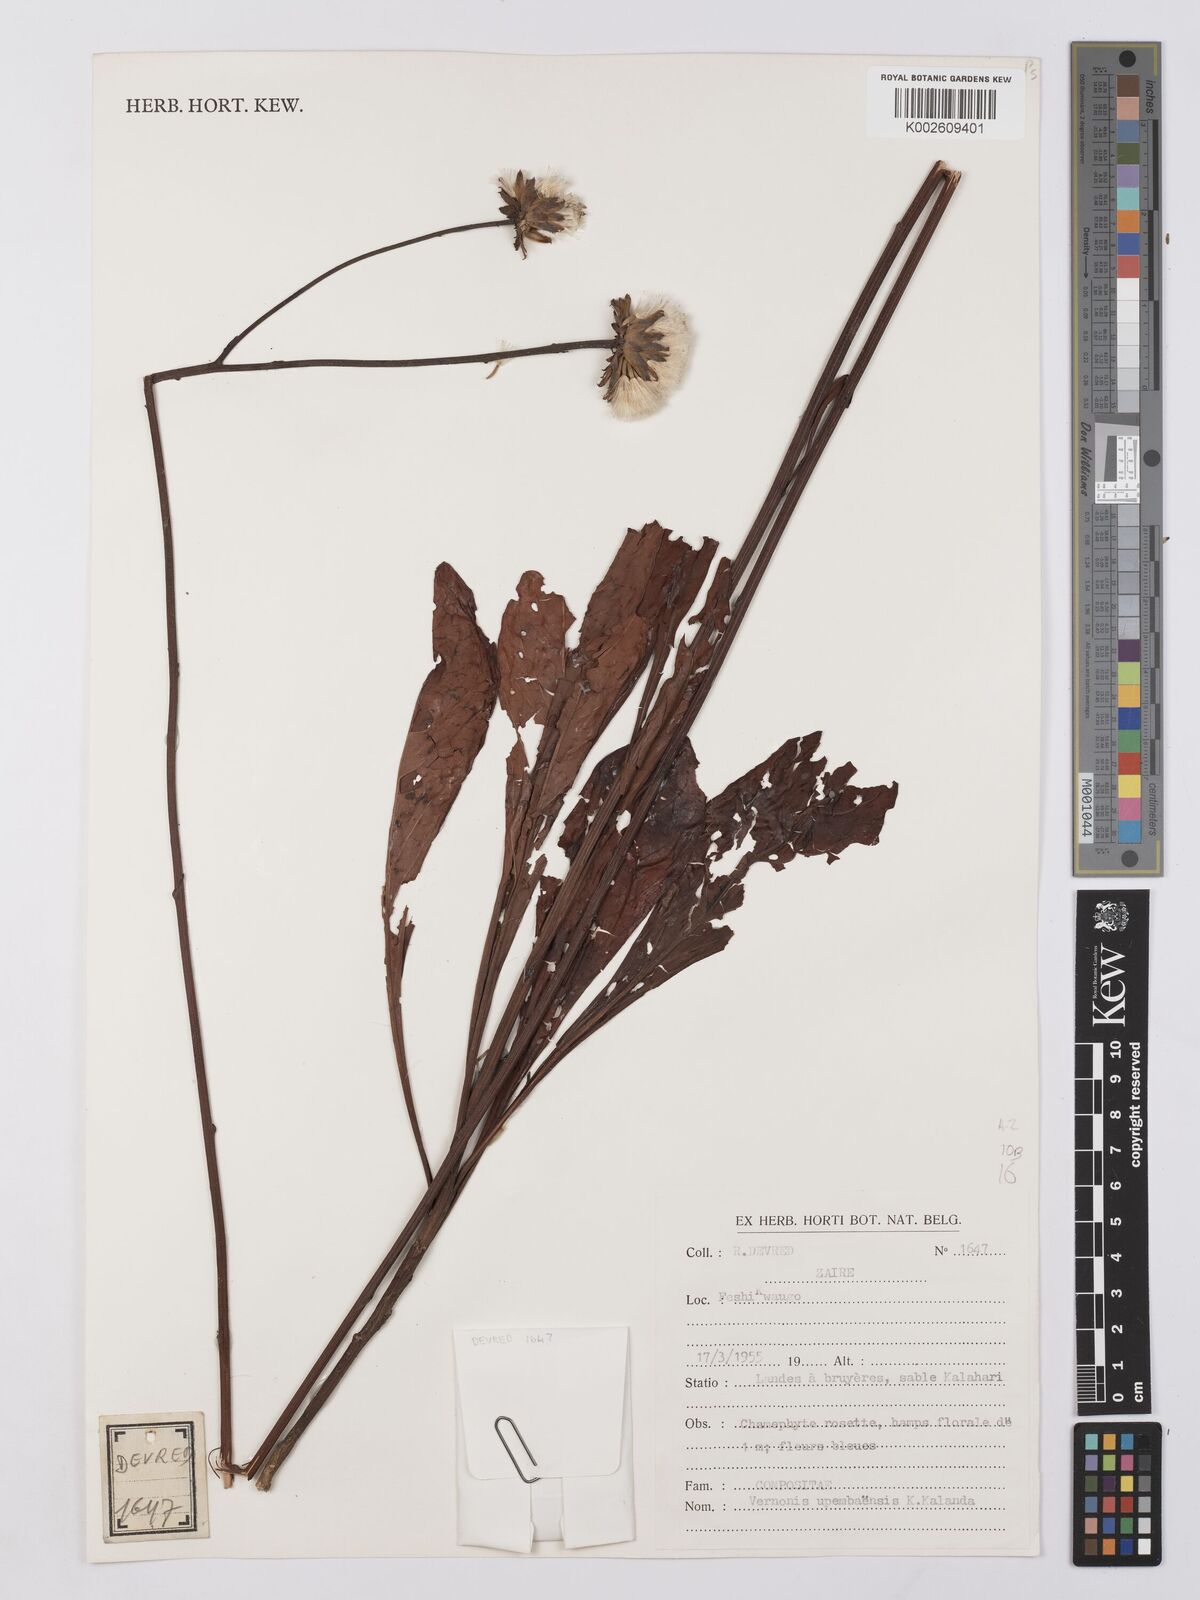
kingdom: Plantae
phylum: Tracheophyta
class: Magnoliopsida
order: Asterales
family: Asteraceae
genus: Vernonia
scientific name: Vernonia upembaensis
